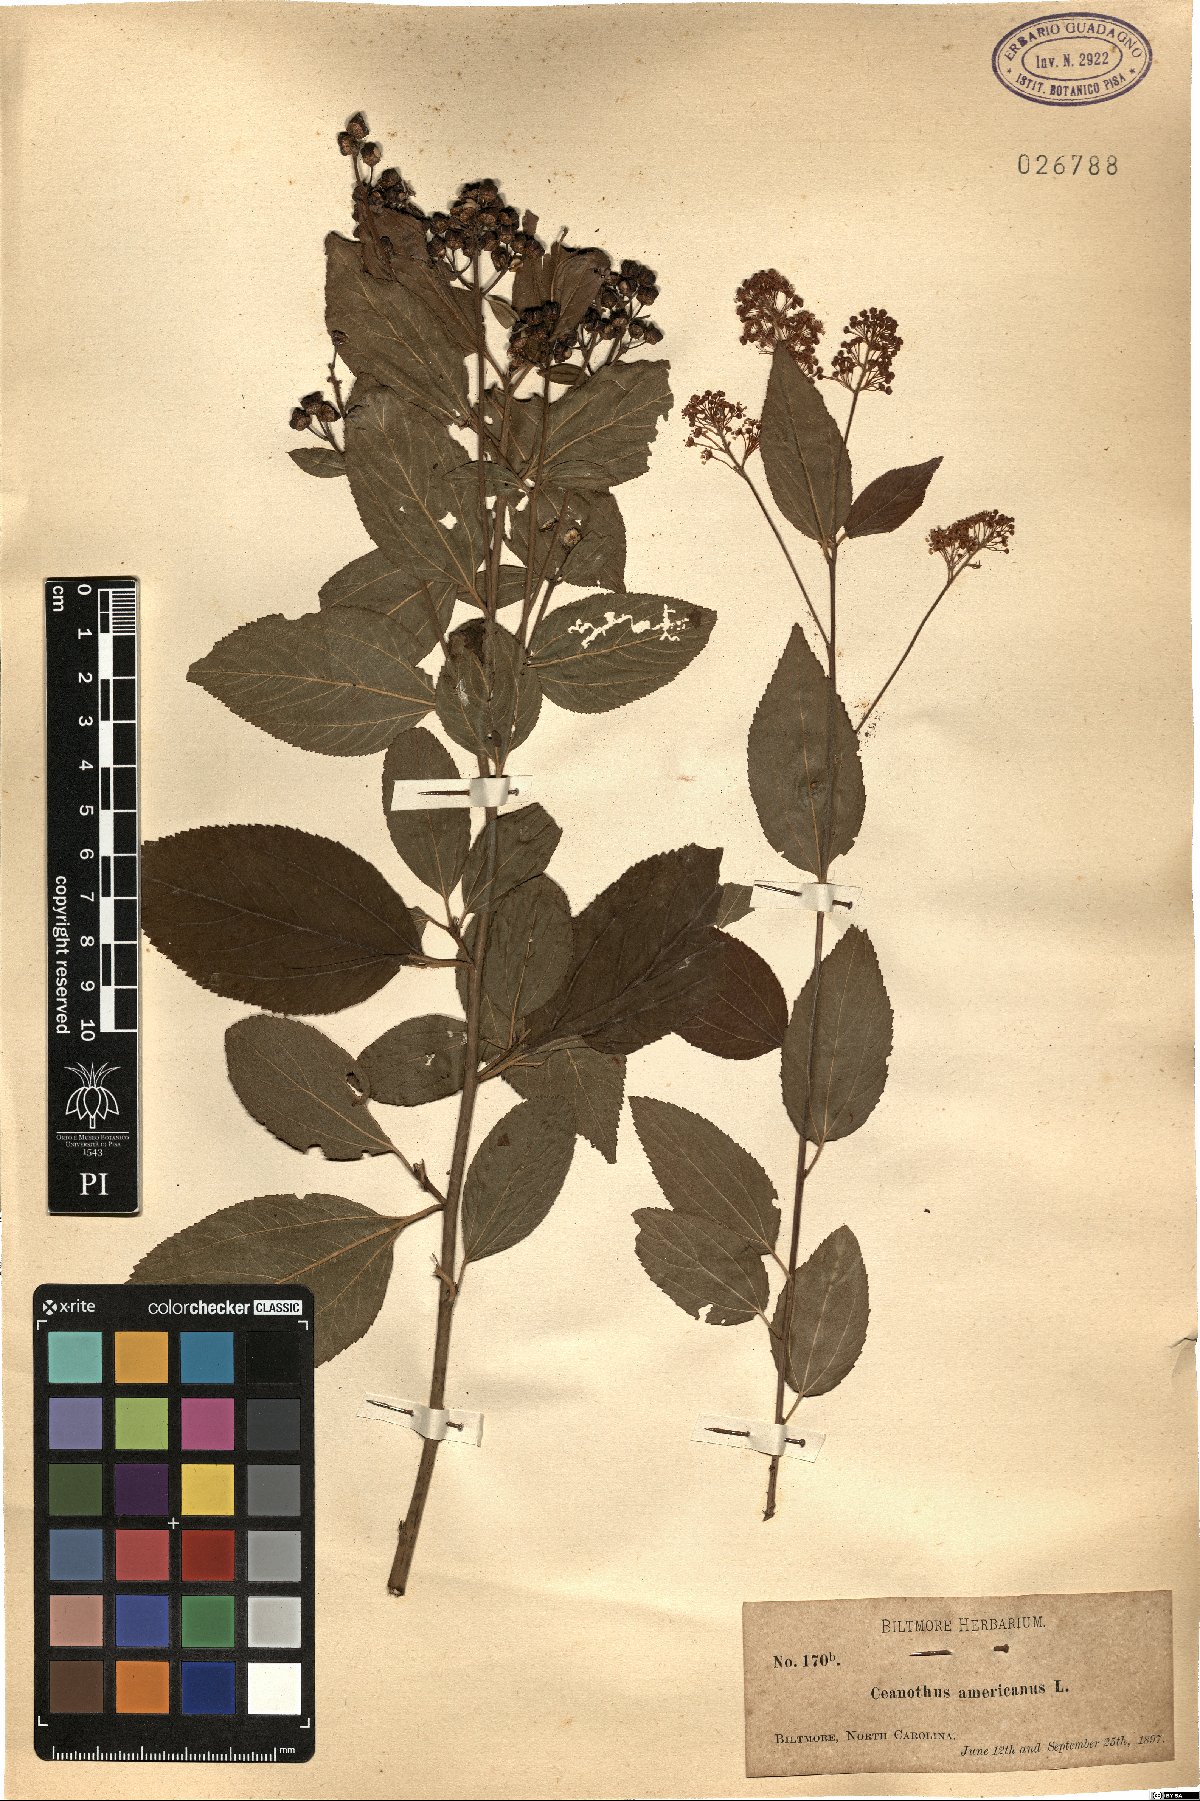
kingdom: Plantae
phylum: Tracheophyta
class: Magnoliopsida
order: Rosales
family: Rhamnaceae
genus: Ceanothus
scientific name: Ceanothus americanus
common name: Redroot
